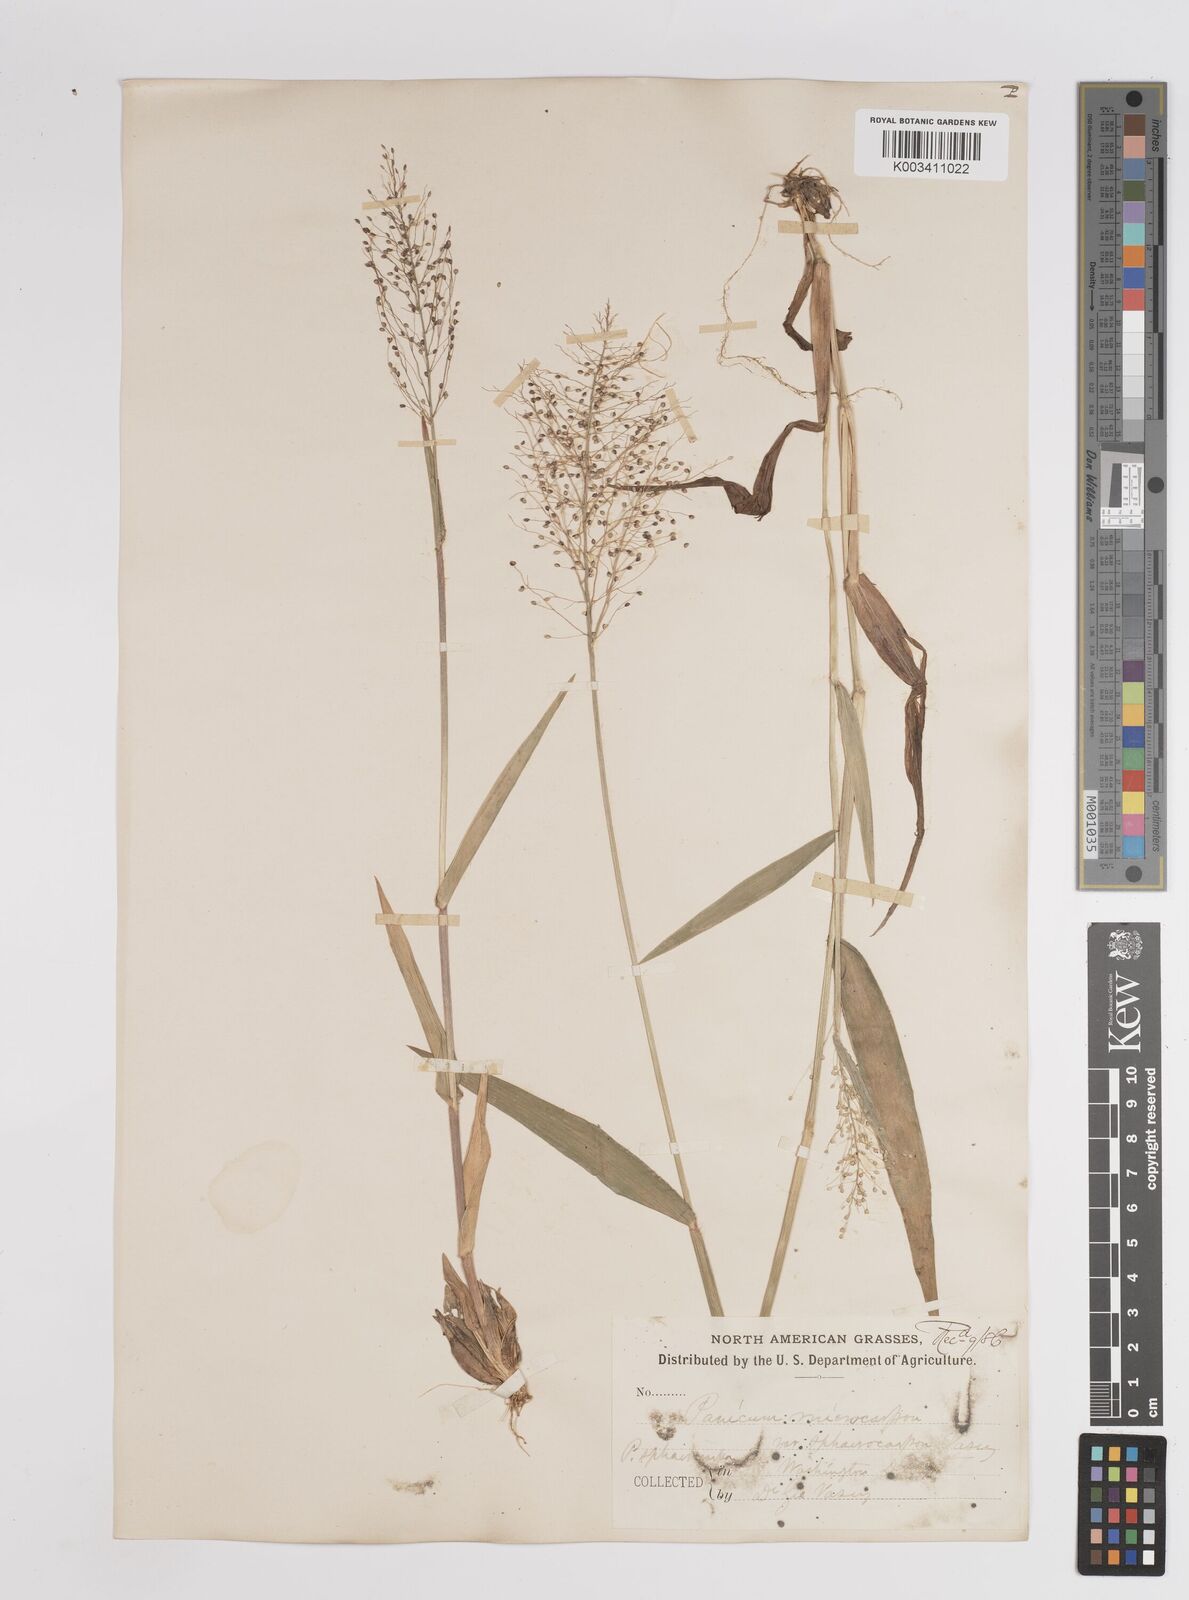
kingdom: Plantae
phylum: Tracheophyta
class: Liliopsida
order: Poales
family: Poaceae
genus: Setaria
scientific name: Setaria tenax
